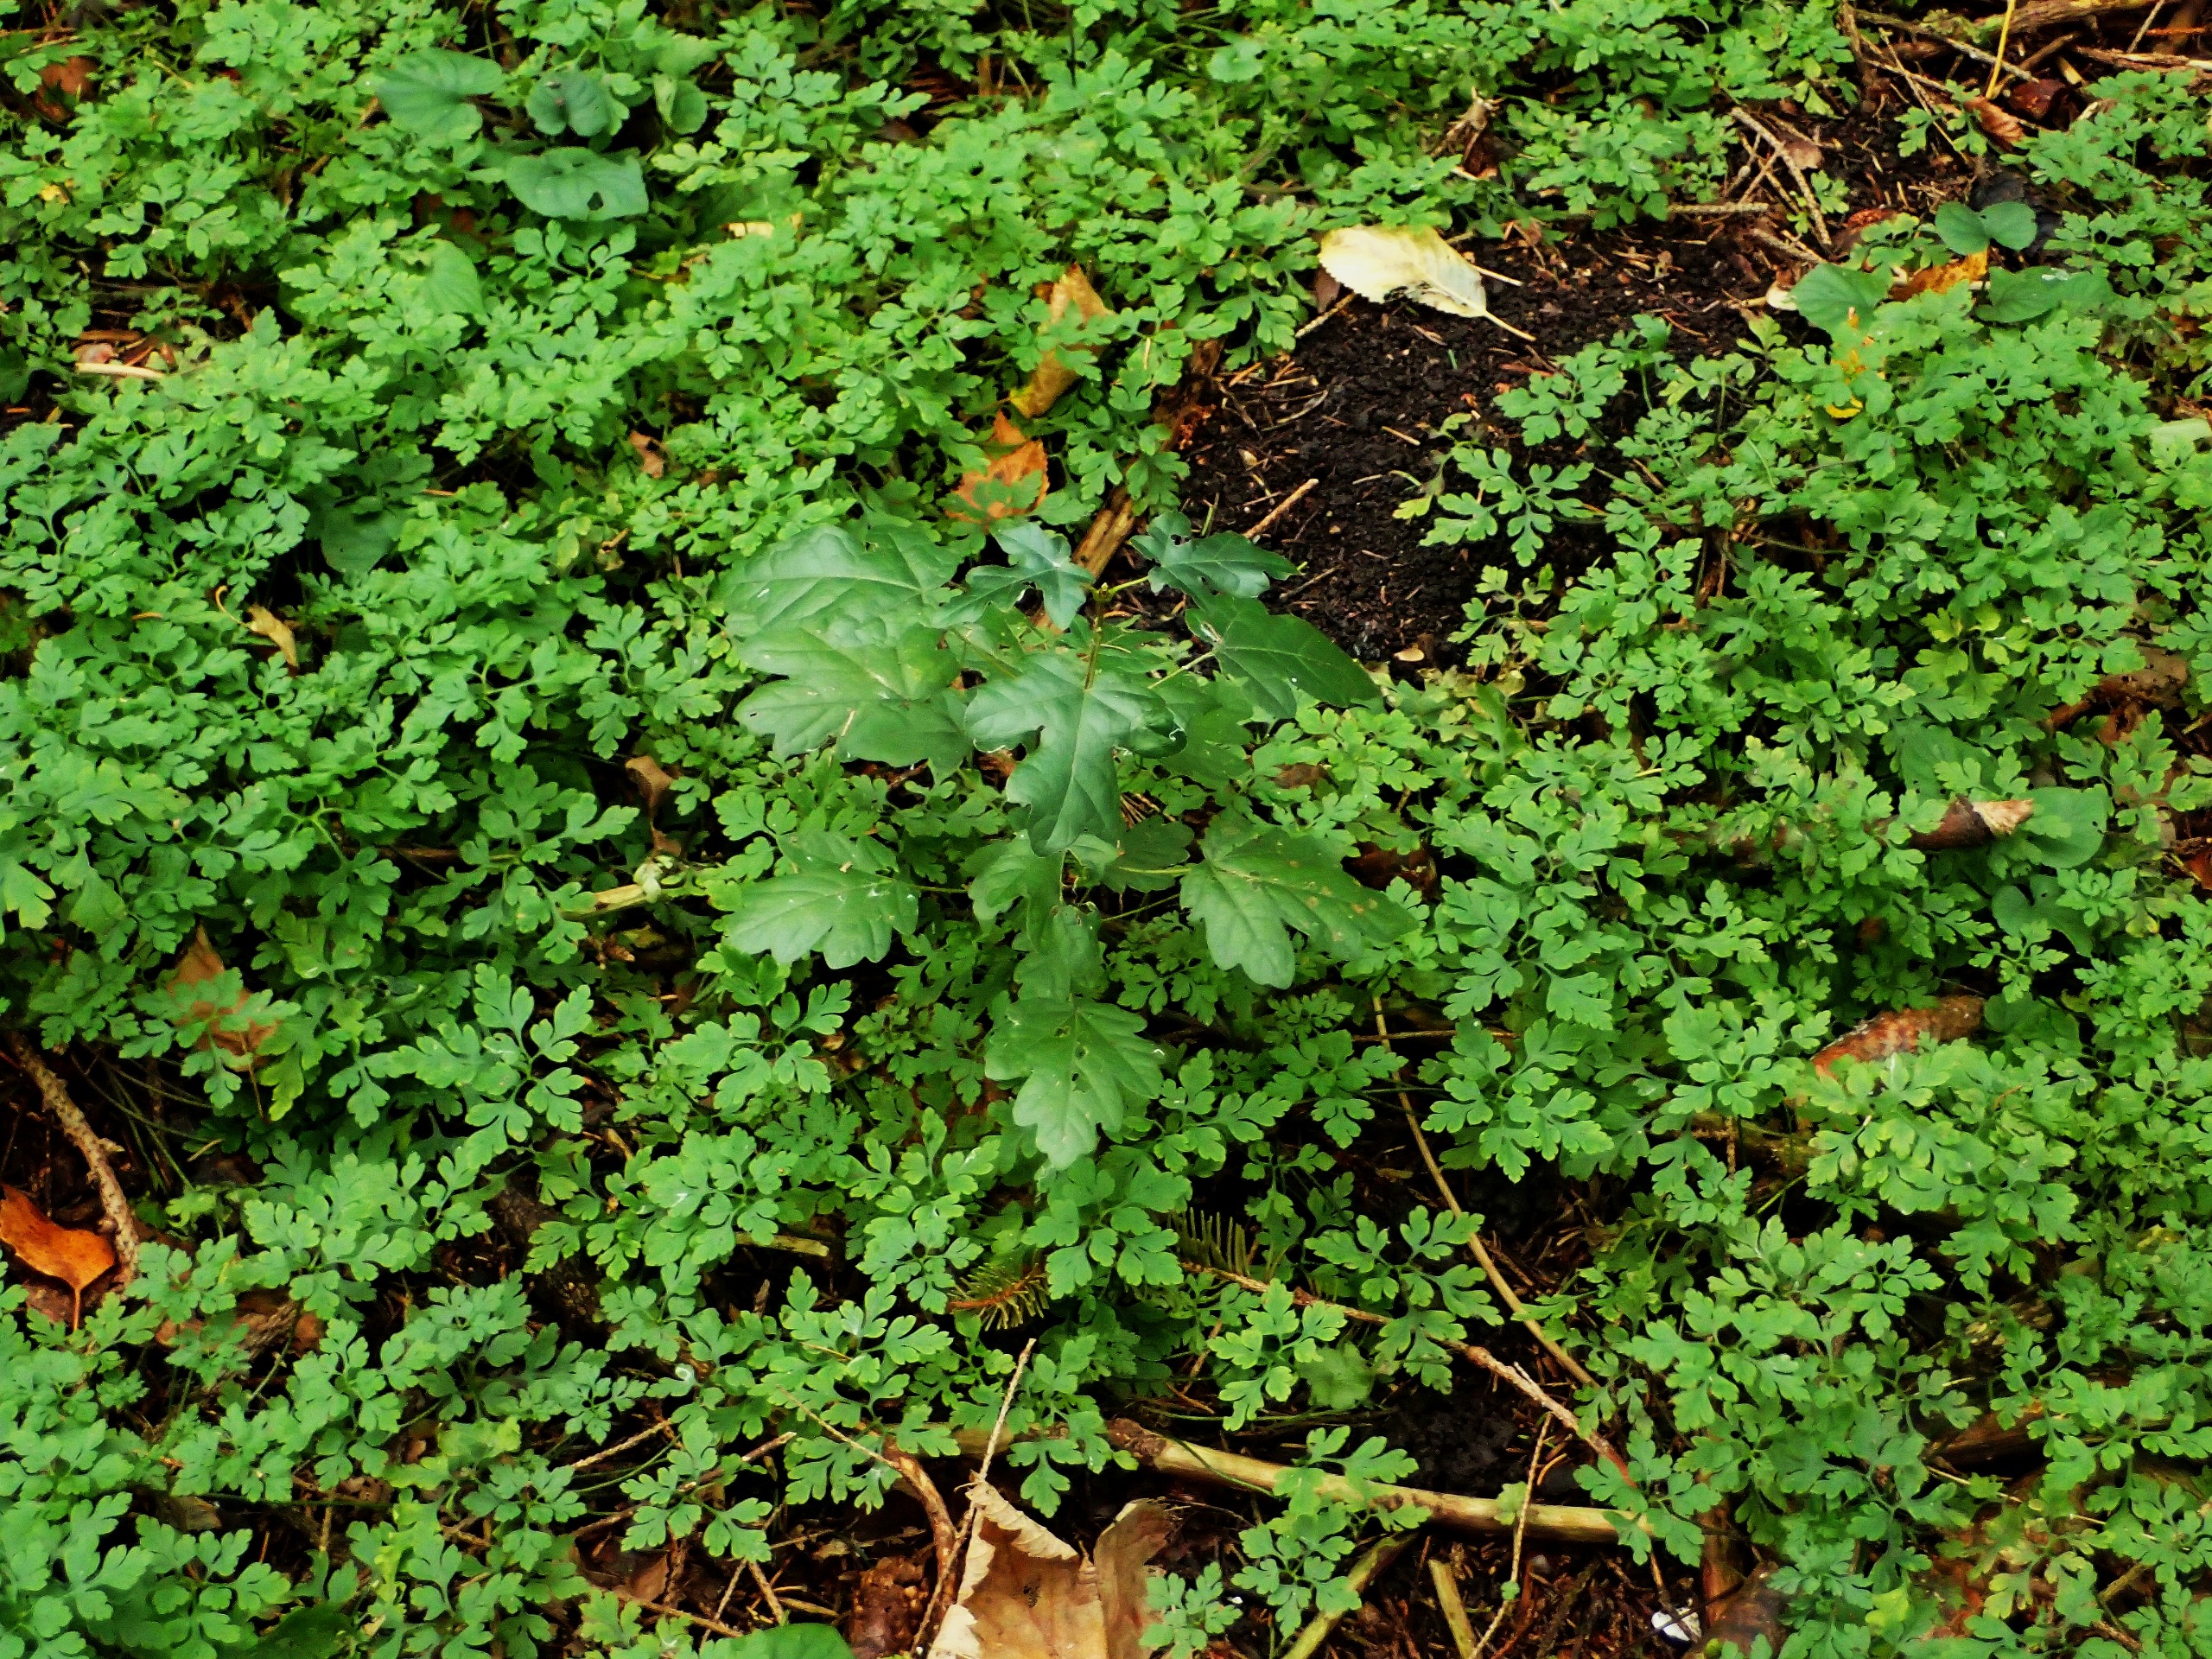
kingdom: Plantae
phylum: Tracheophyta
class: Magnoliopsida
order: Sapindales
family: Sapindaceae
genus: Acer
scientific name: Acer campestre
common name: Navr
